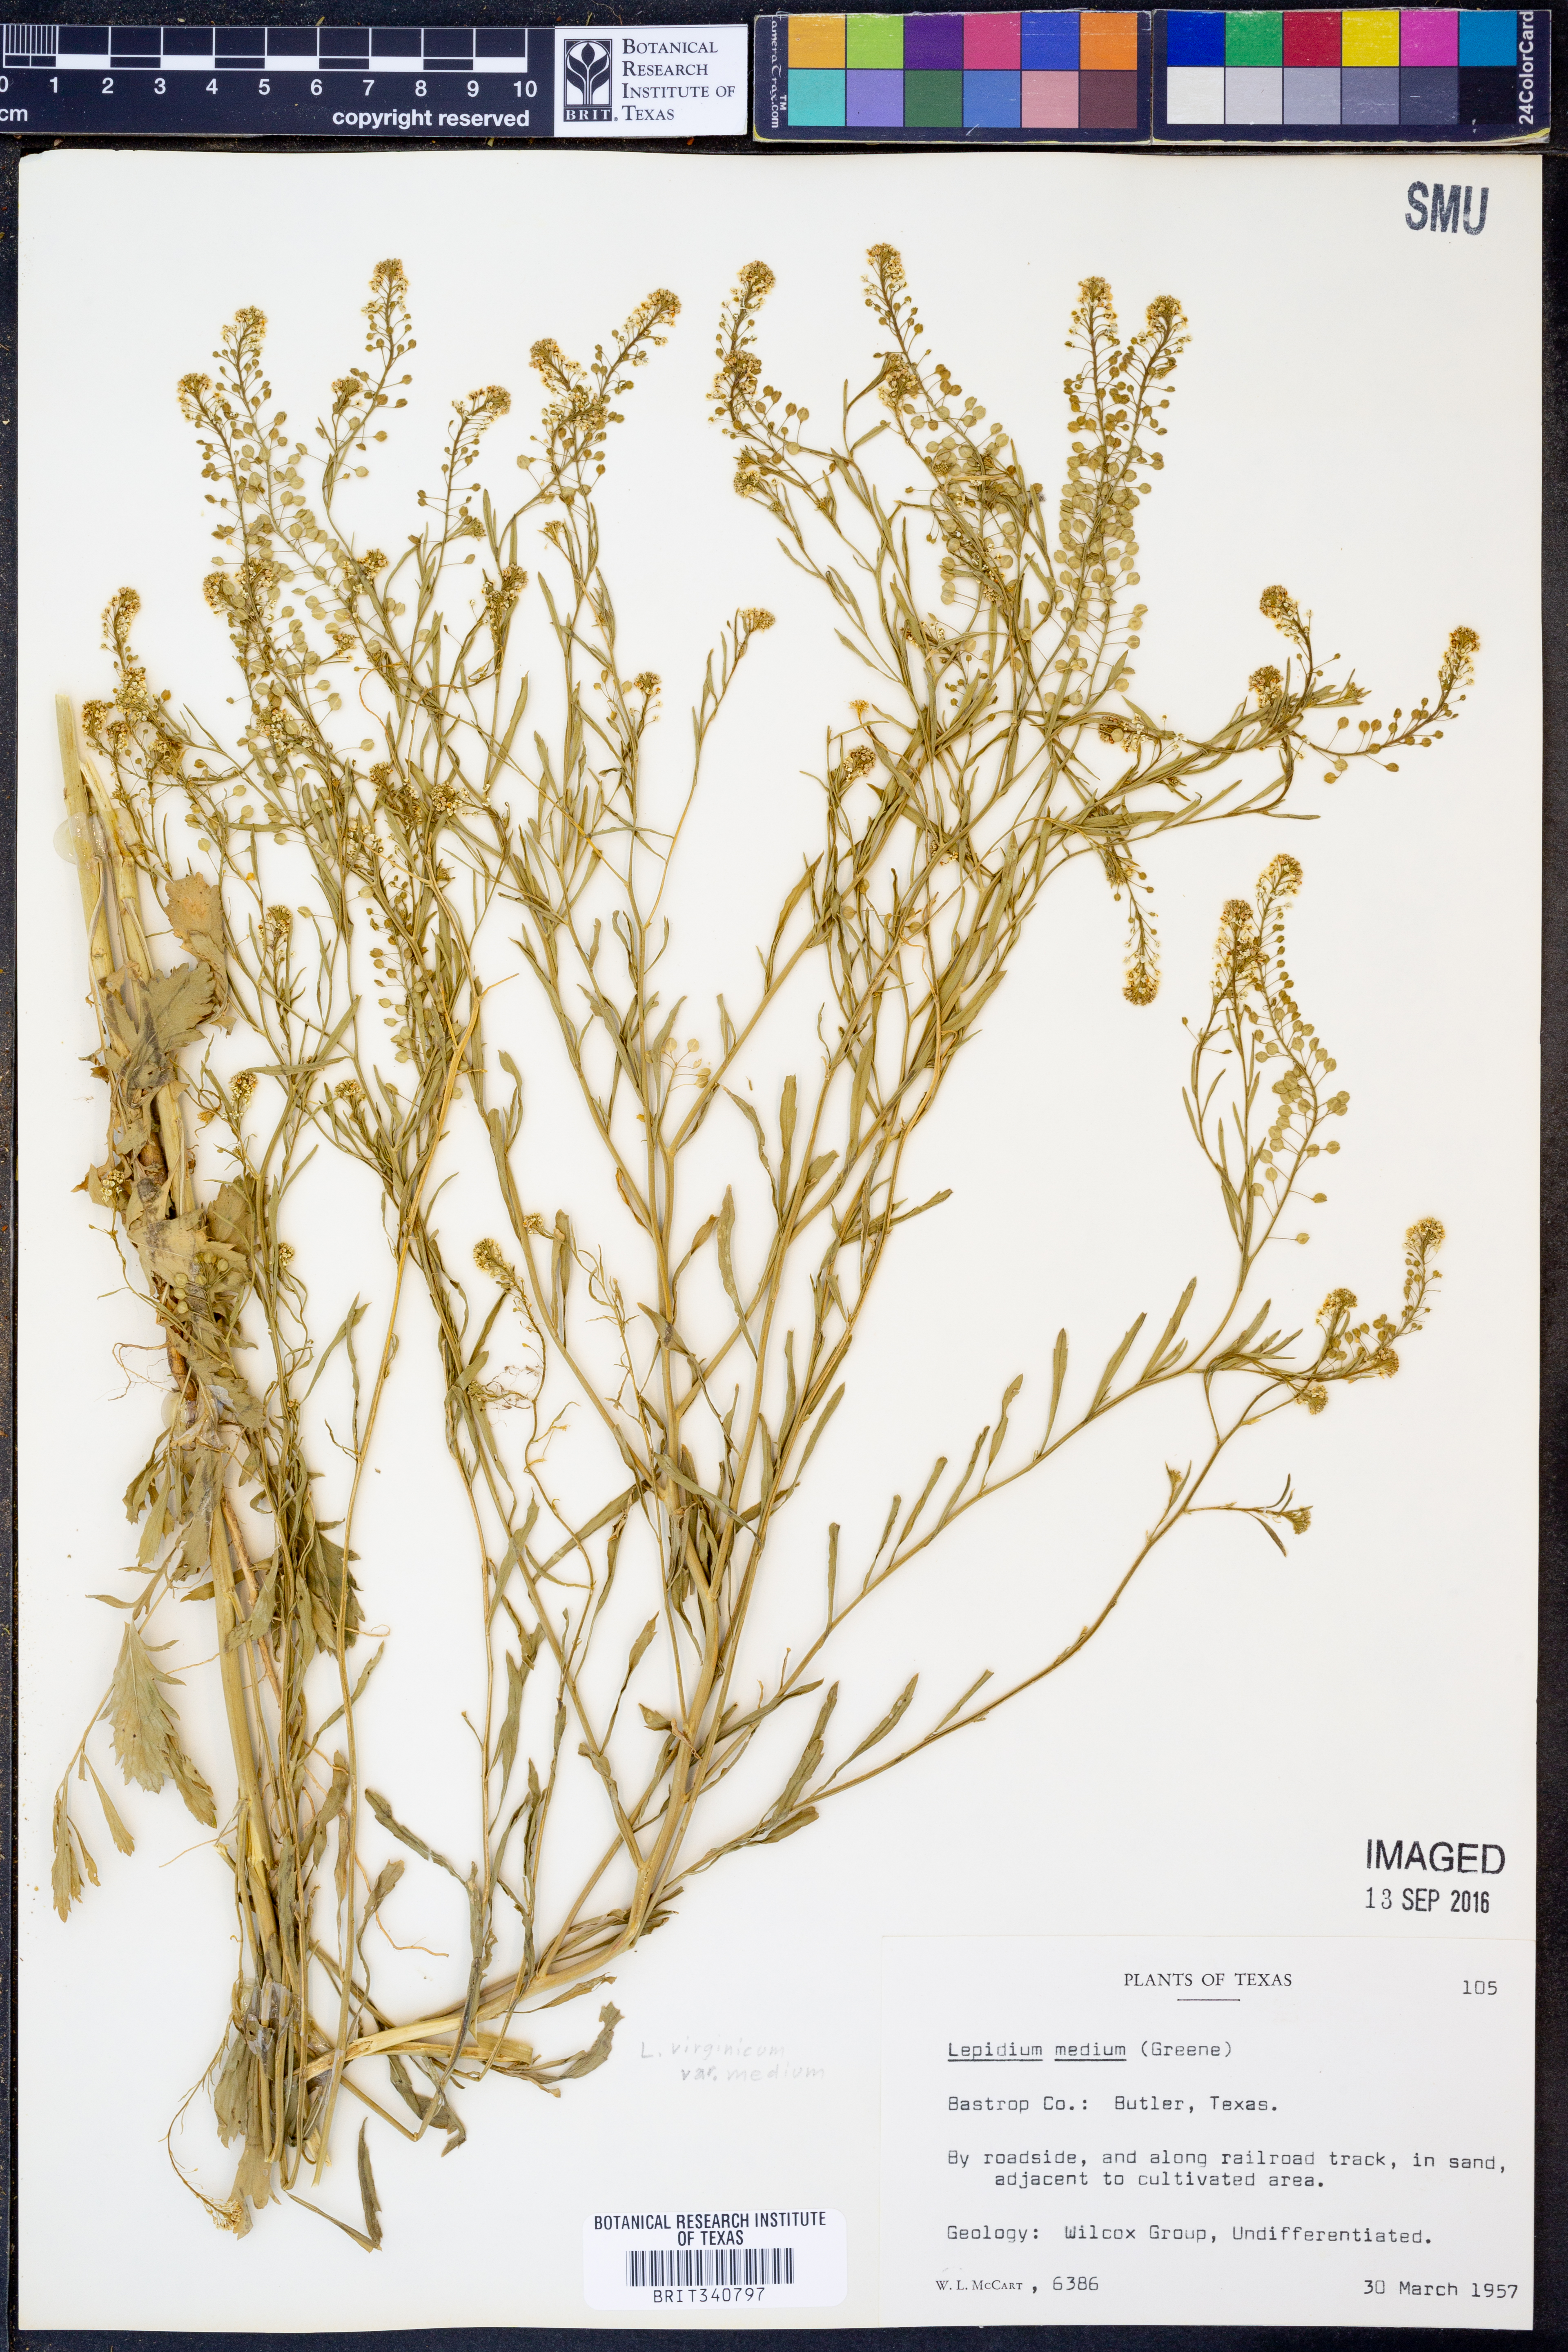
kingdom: Plantae
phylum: Tracheophyta
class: Magnoliopsida
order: Brassicales
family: Brassicaceae
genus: Lepidium
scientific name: Lepidium virginicum
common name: Least pepperwort
